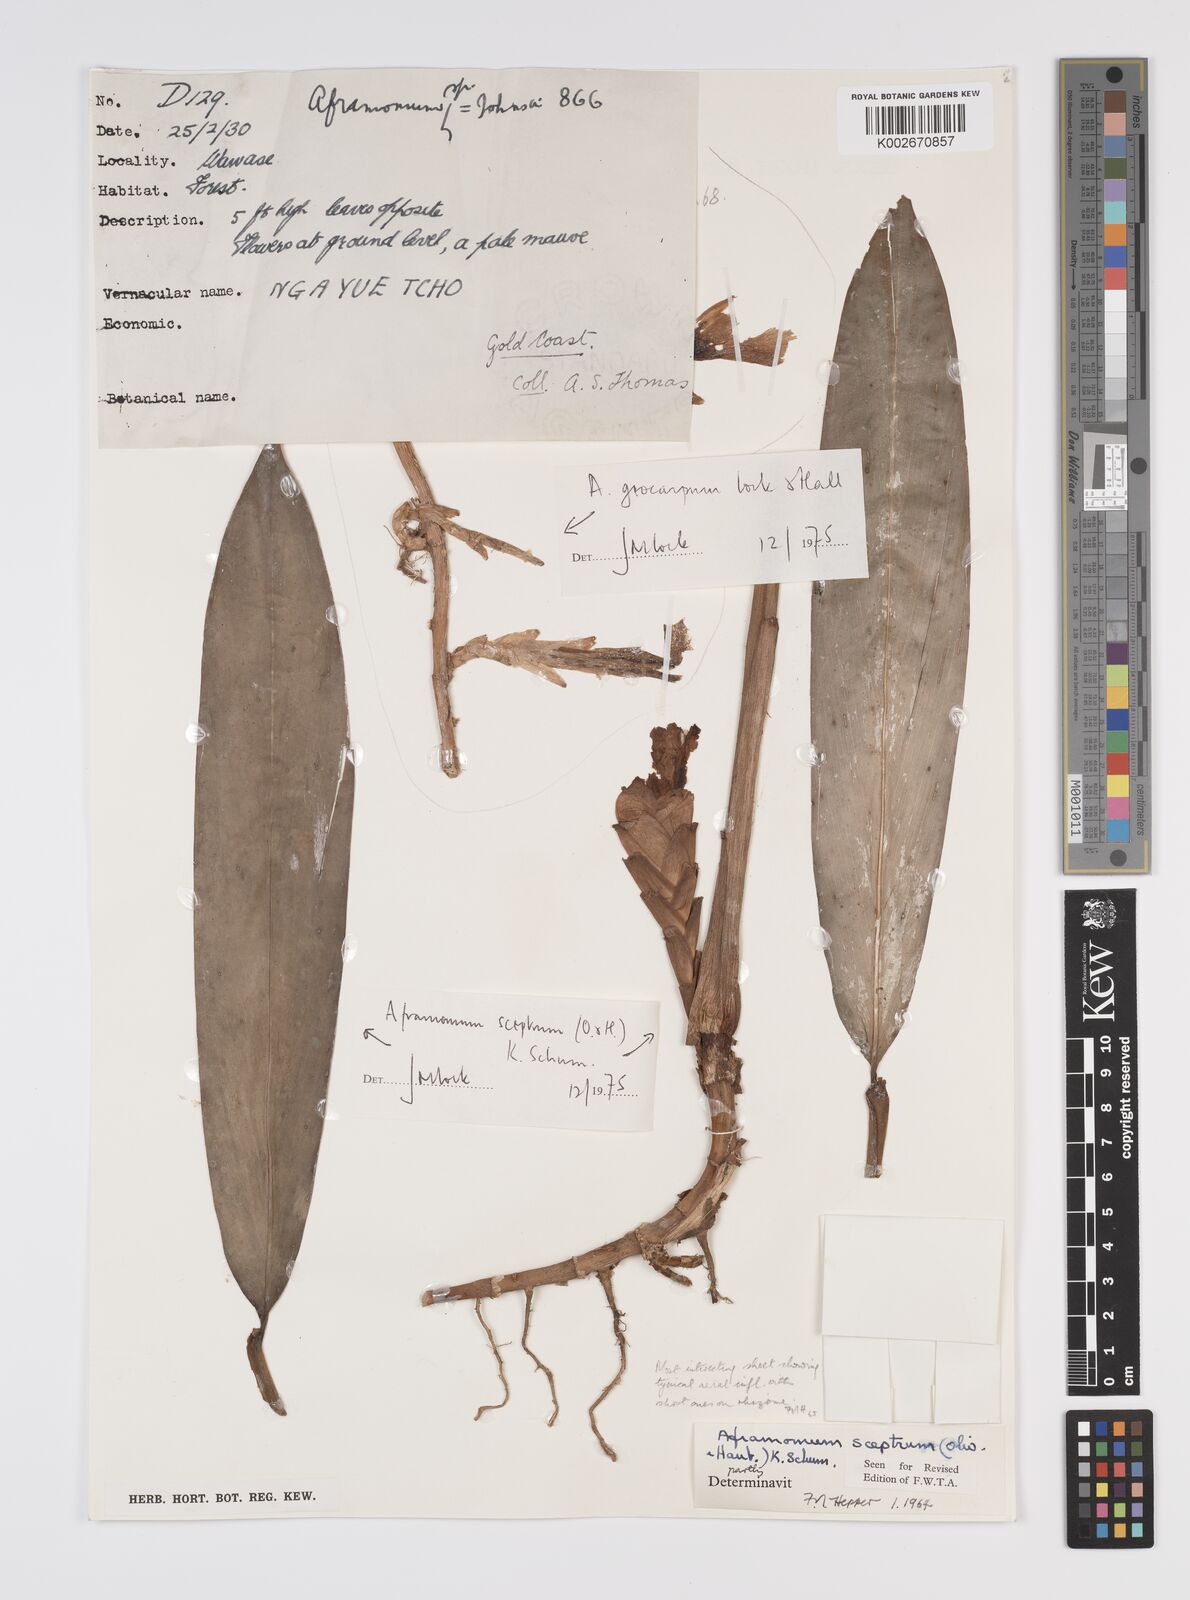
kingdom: Plantae
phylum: Tracheophyta
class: Liliopsida
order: Zingiberales
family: Zingiberaceae
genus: Aframomum
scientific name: Aframomum cereum
